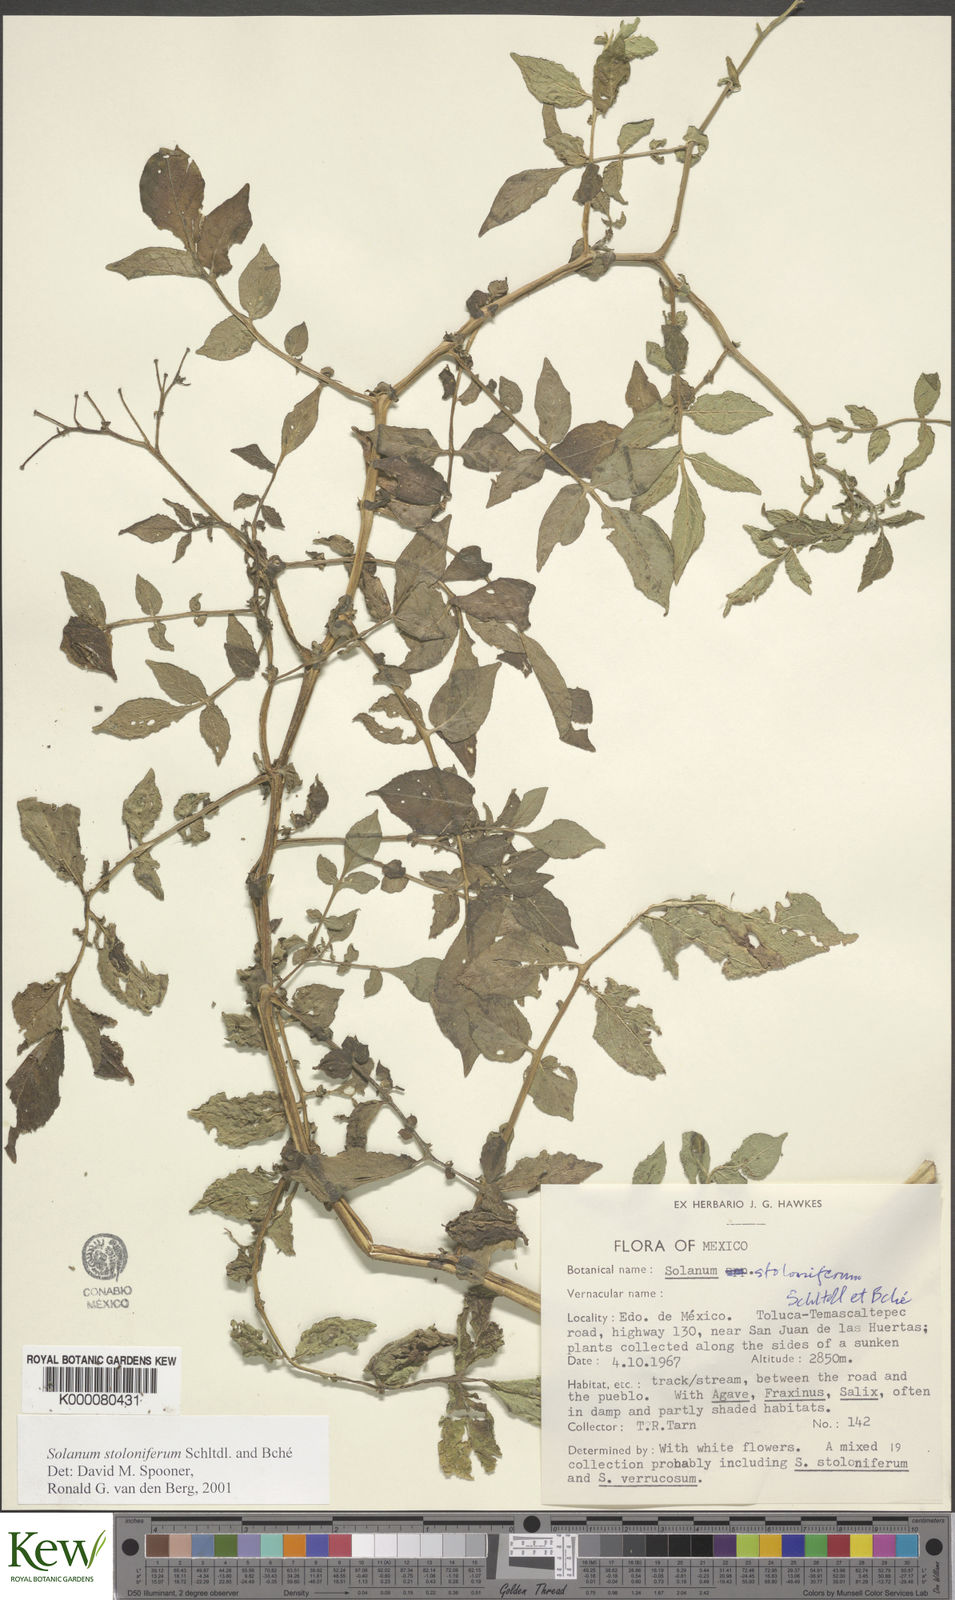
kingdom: Plantae
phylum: Tracheophyta
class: Magnoliopsida
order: Solanales
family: Solanaceae
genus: Solanum
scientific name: Solanum stoloniferum
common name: Fendler's nighshade
